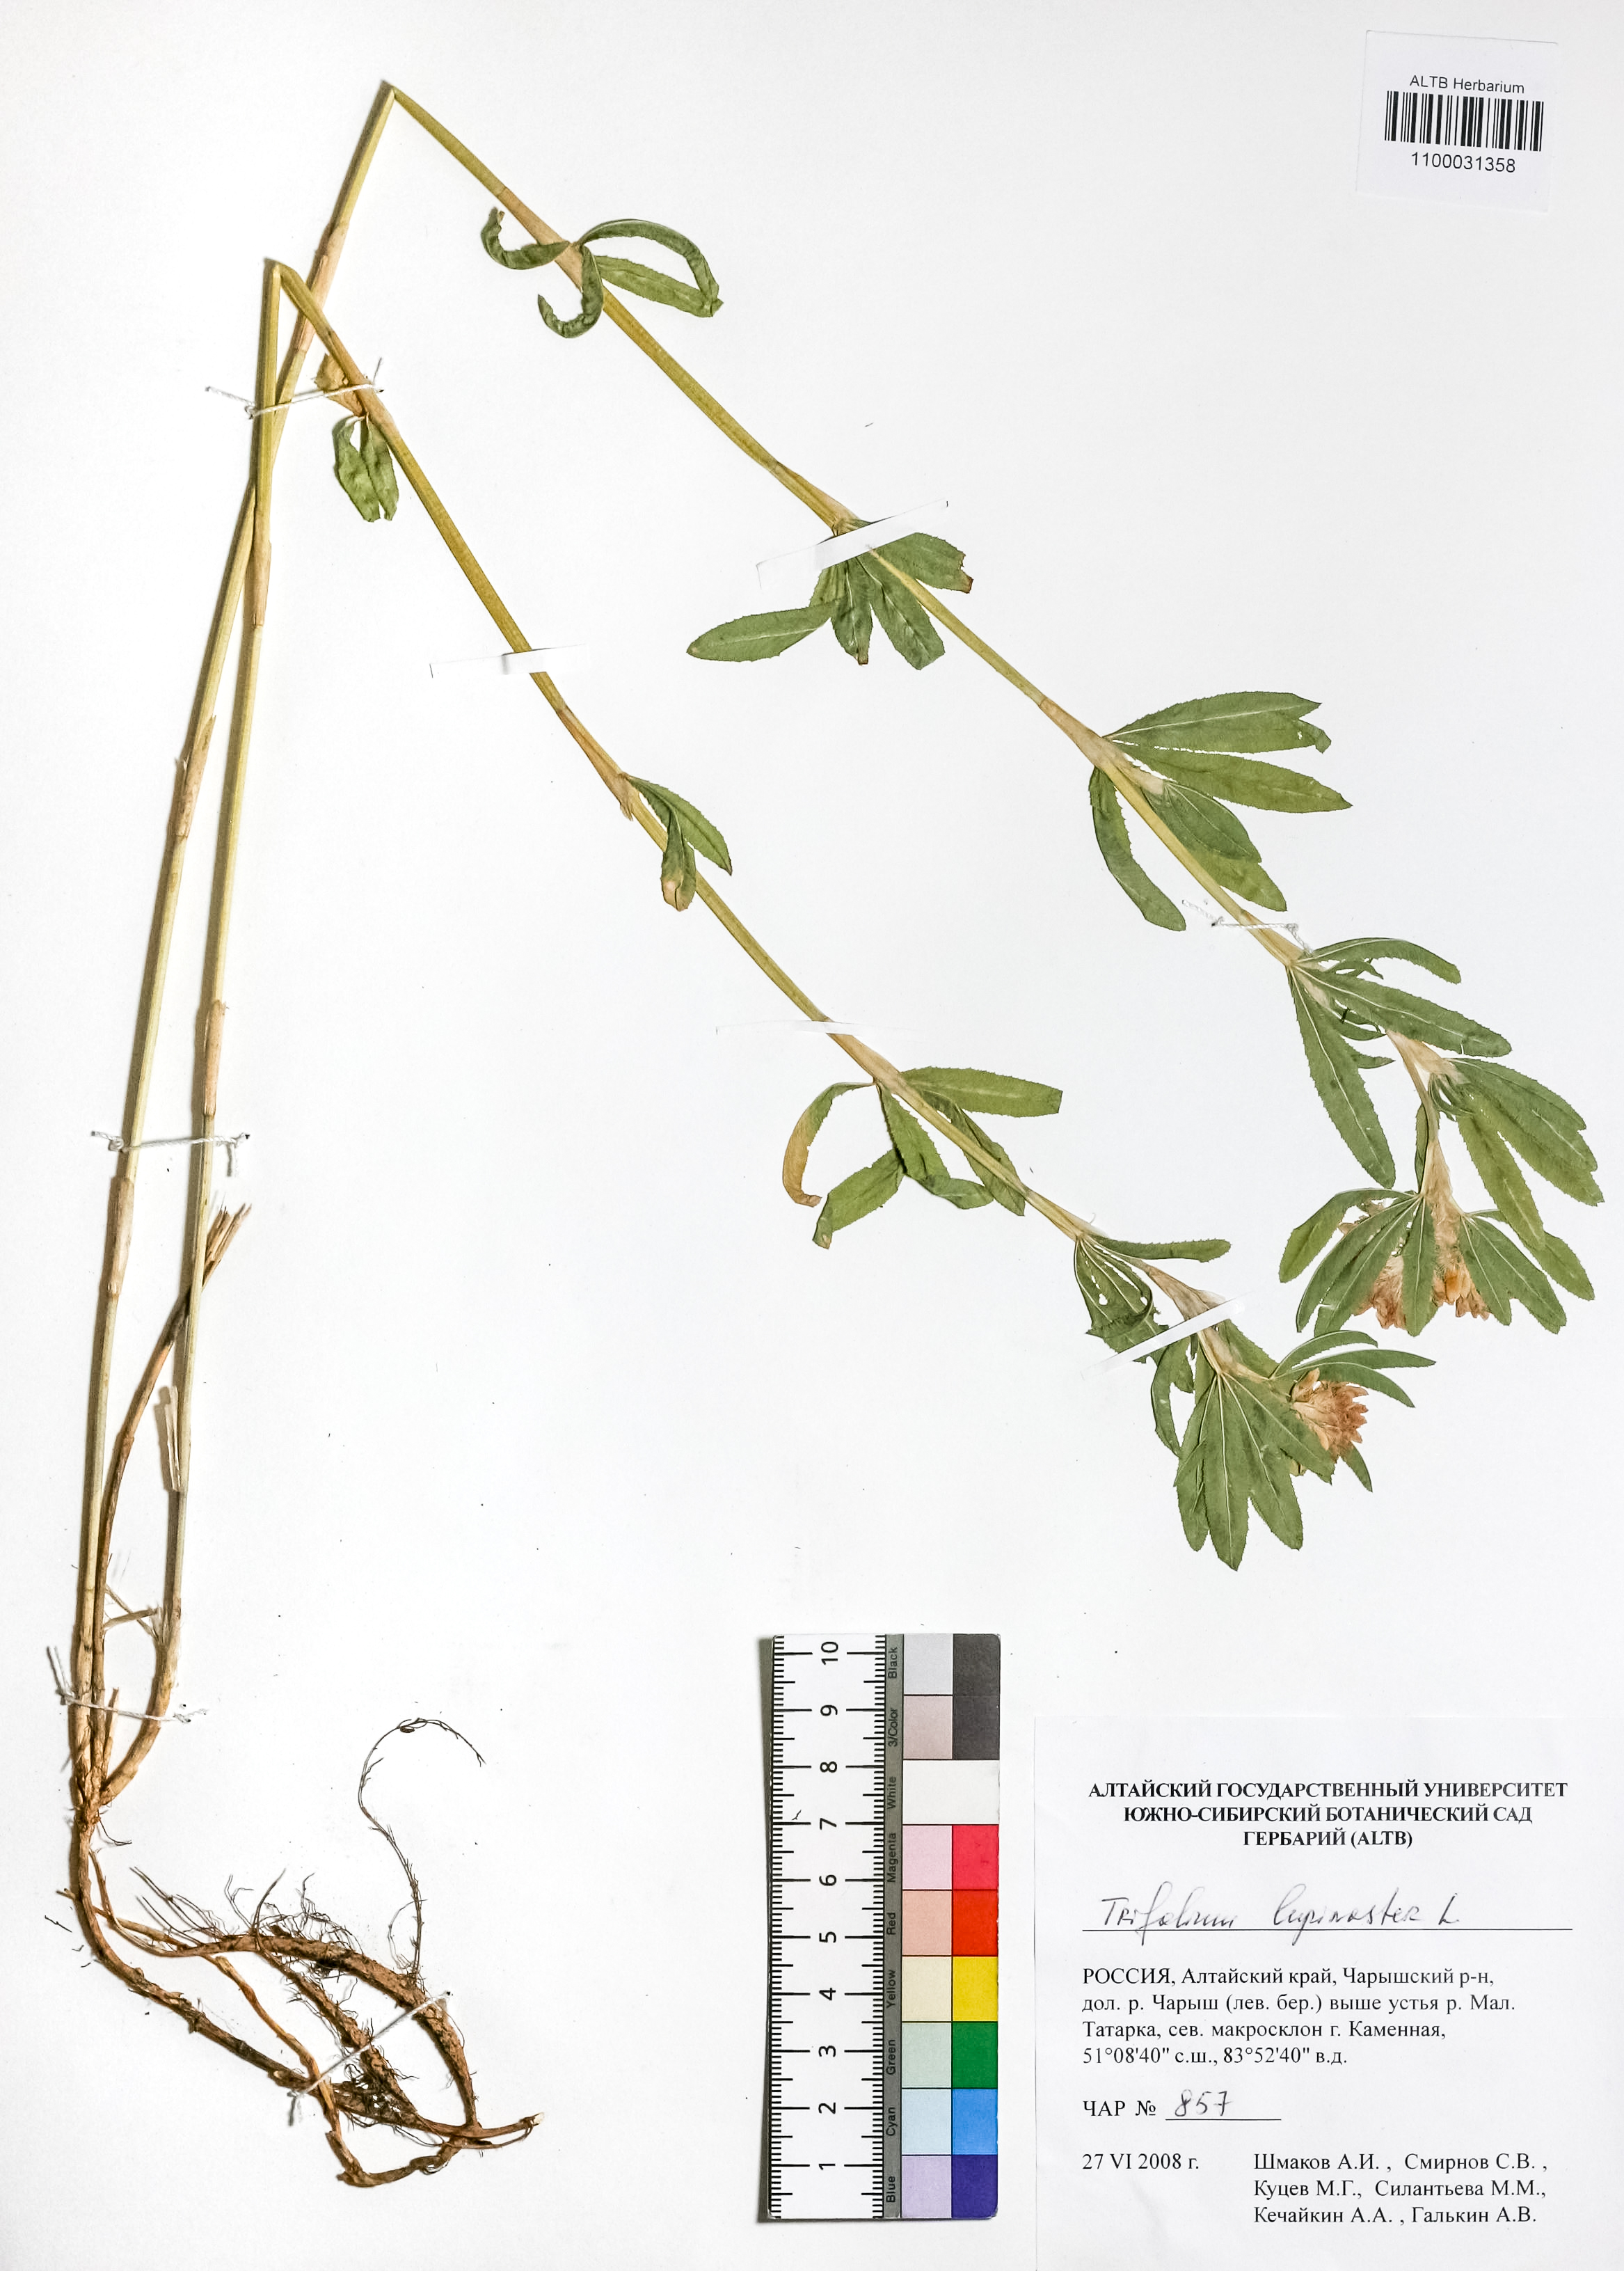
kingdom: Plantae
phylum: Tracheophyta
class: Magnoliopsida
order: Fabales
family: Fabaceae
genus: Trifolium
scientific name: Trifolium lupinaster
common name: Lupine clover
